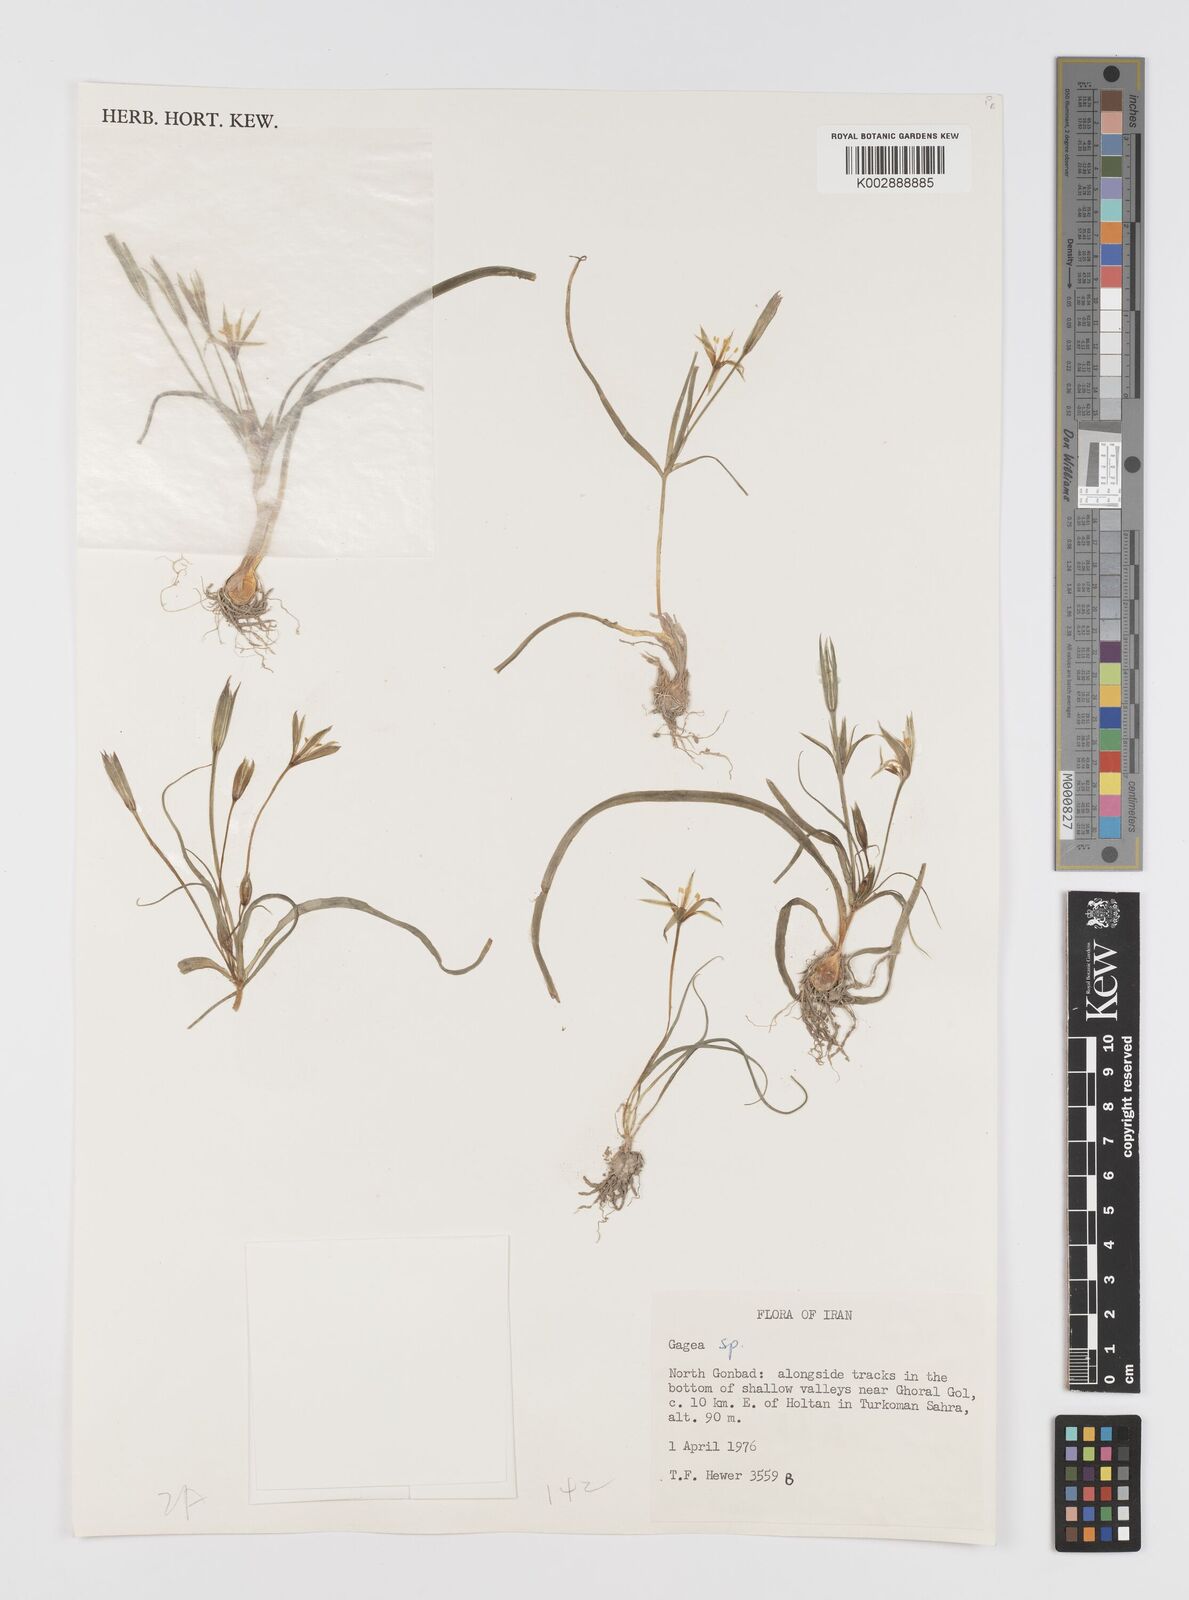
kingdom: Plantae
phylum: Tracheophyta
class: Liliopsida
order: Liliales
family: Liliaceae
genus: Gagea
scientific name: Gagea
